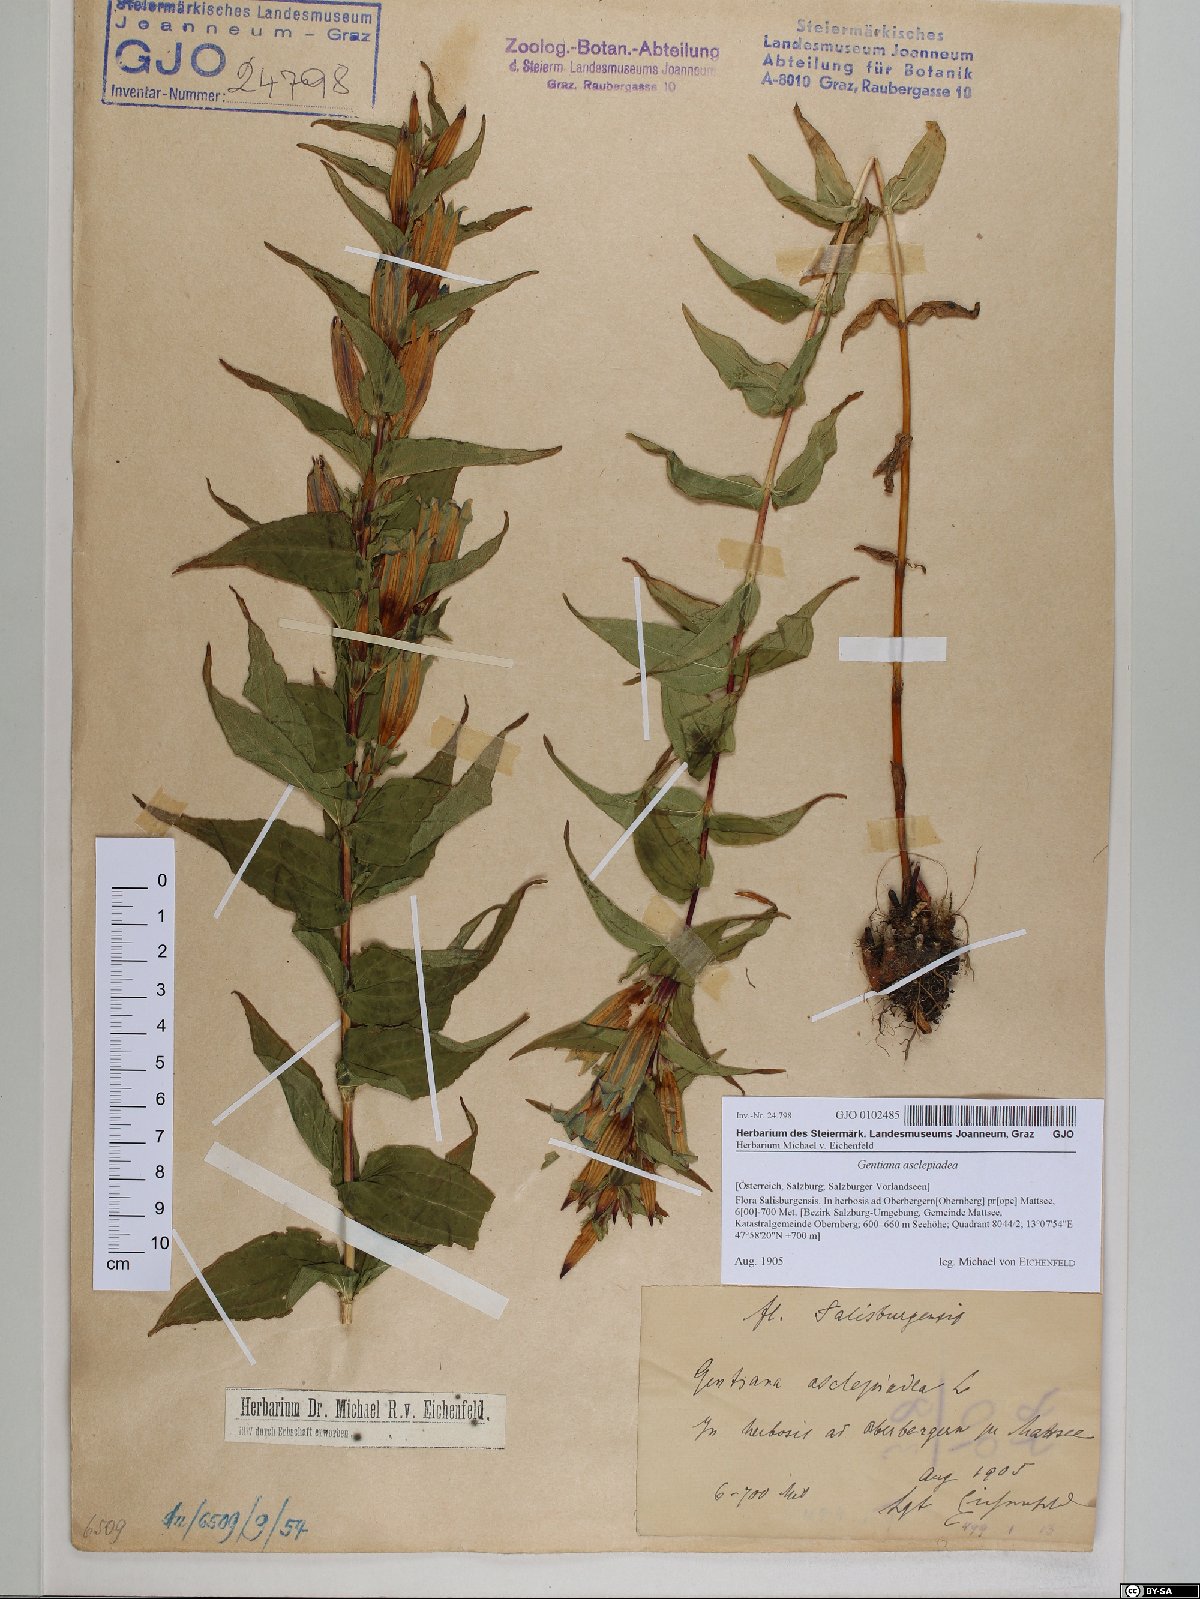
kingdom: Plantae
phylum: Tracheophyta
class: Magnoliopsida
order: Gentianales
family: Gentianaceae
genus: Gentiana
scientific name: Gentiana asclepiadea
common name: Willow gentian
